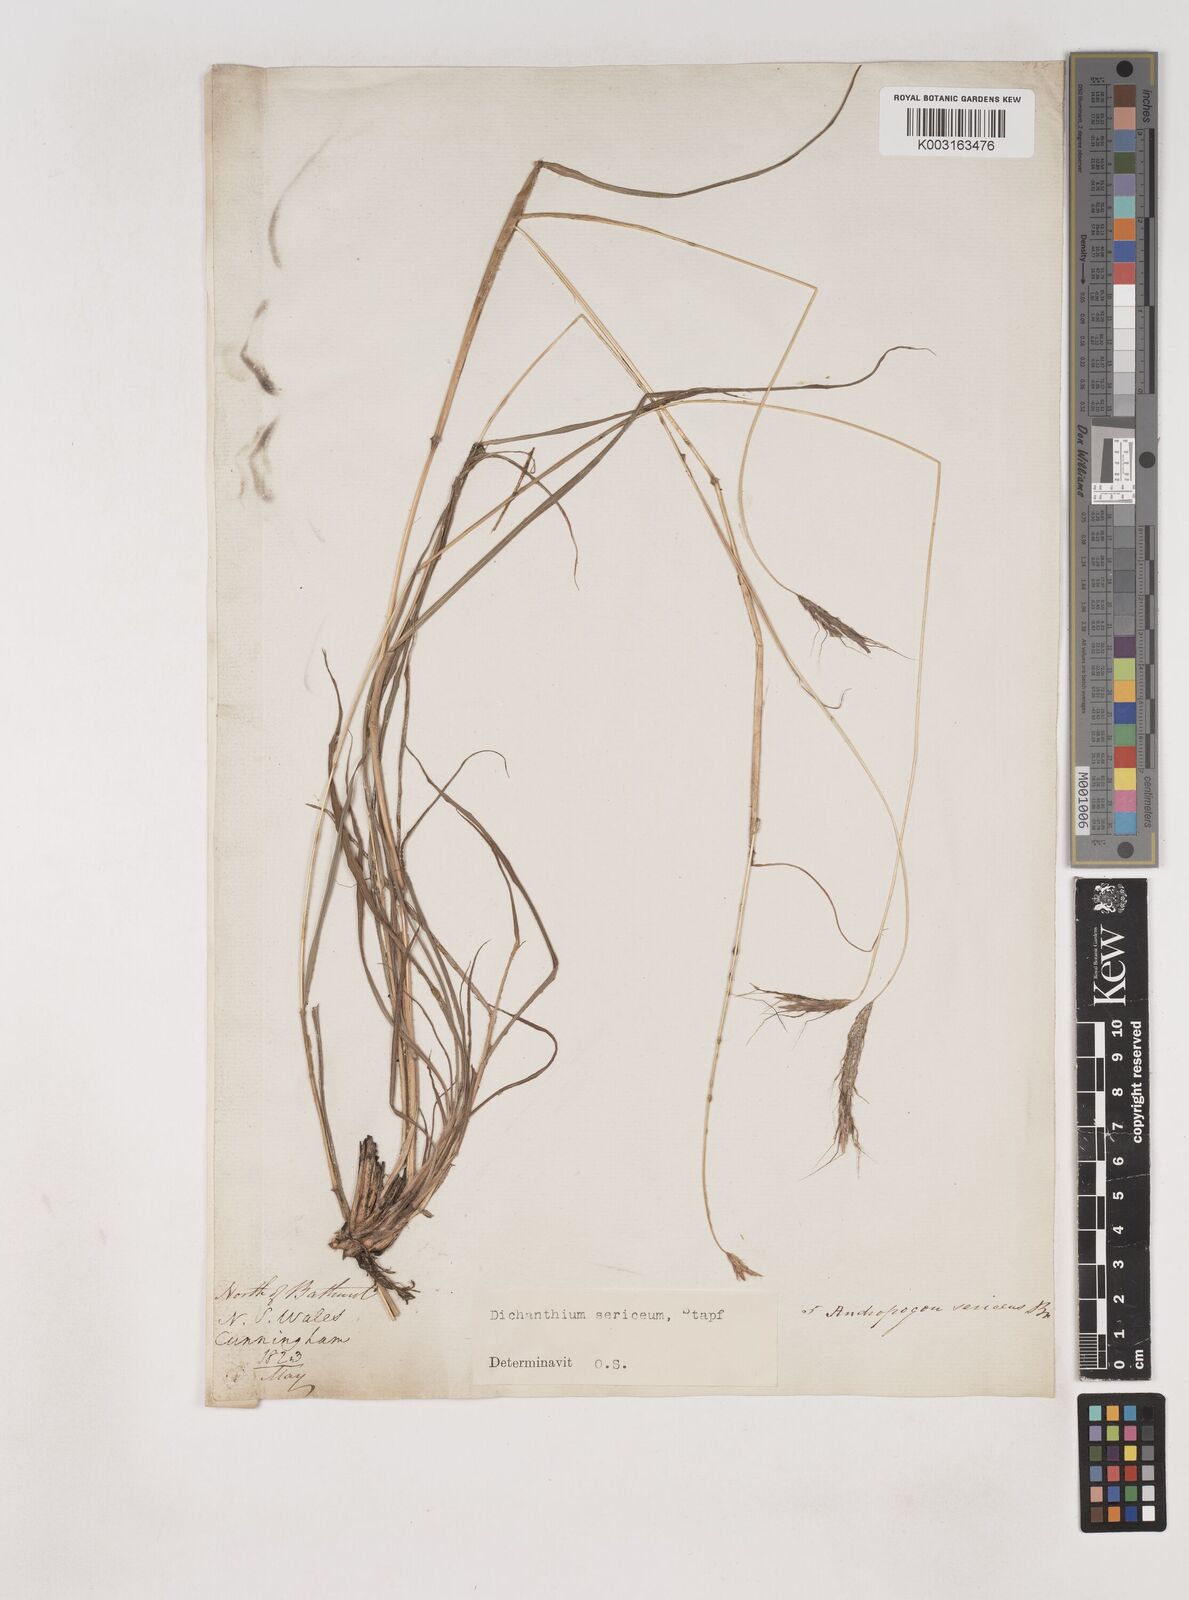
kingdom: Plantae
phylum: Tracheophyta
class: Liliopsida
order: Poales
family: Poaceae
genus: Dichanthium
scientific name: Dichanthium setosum
